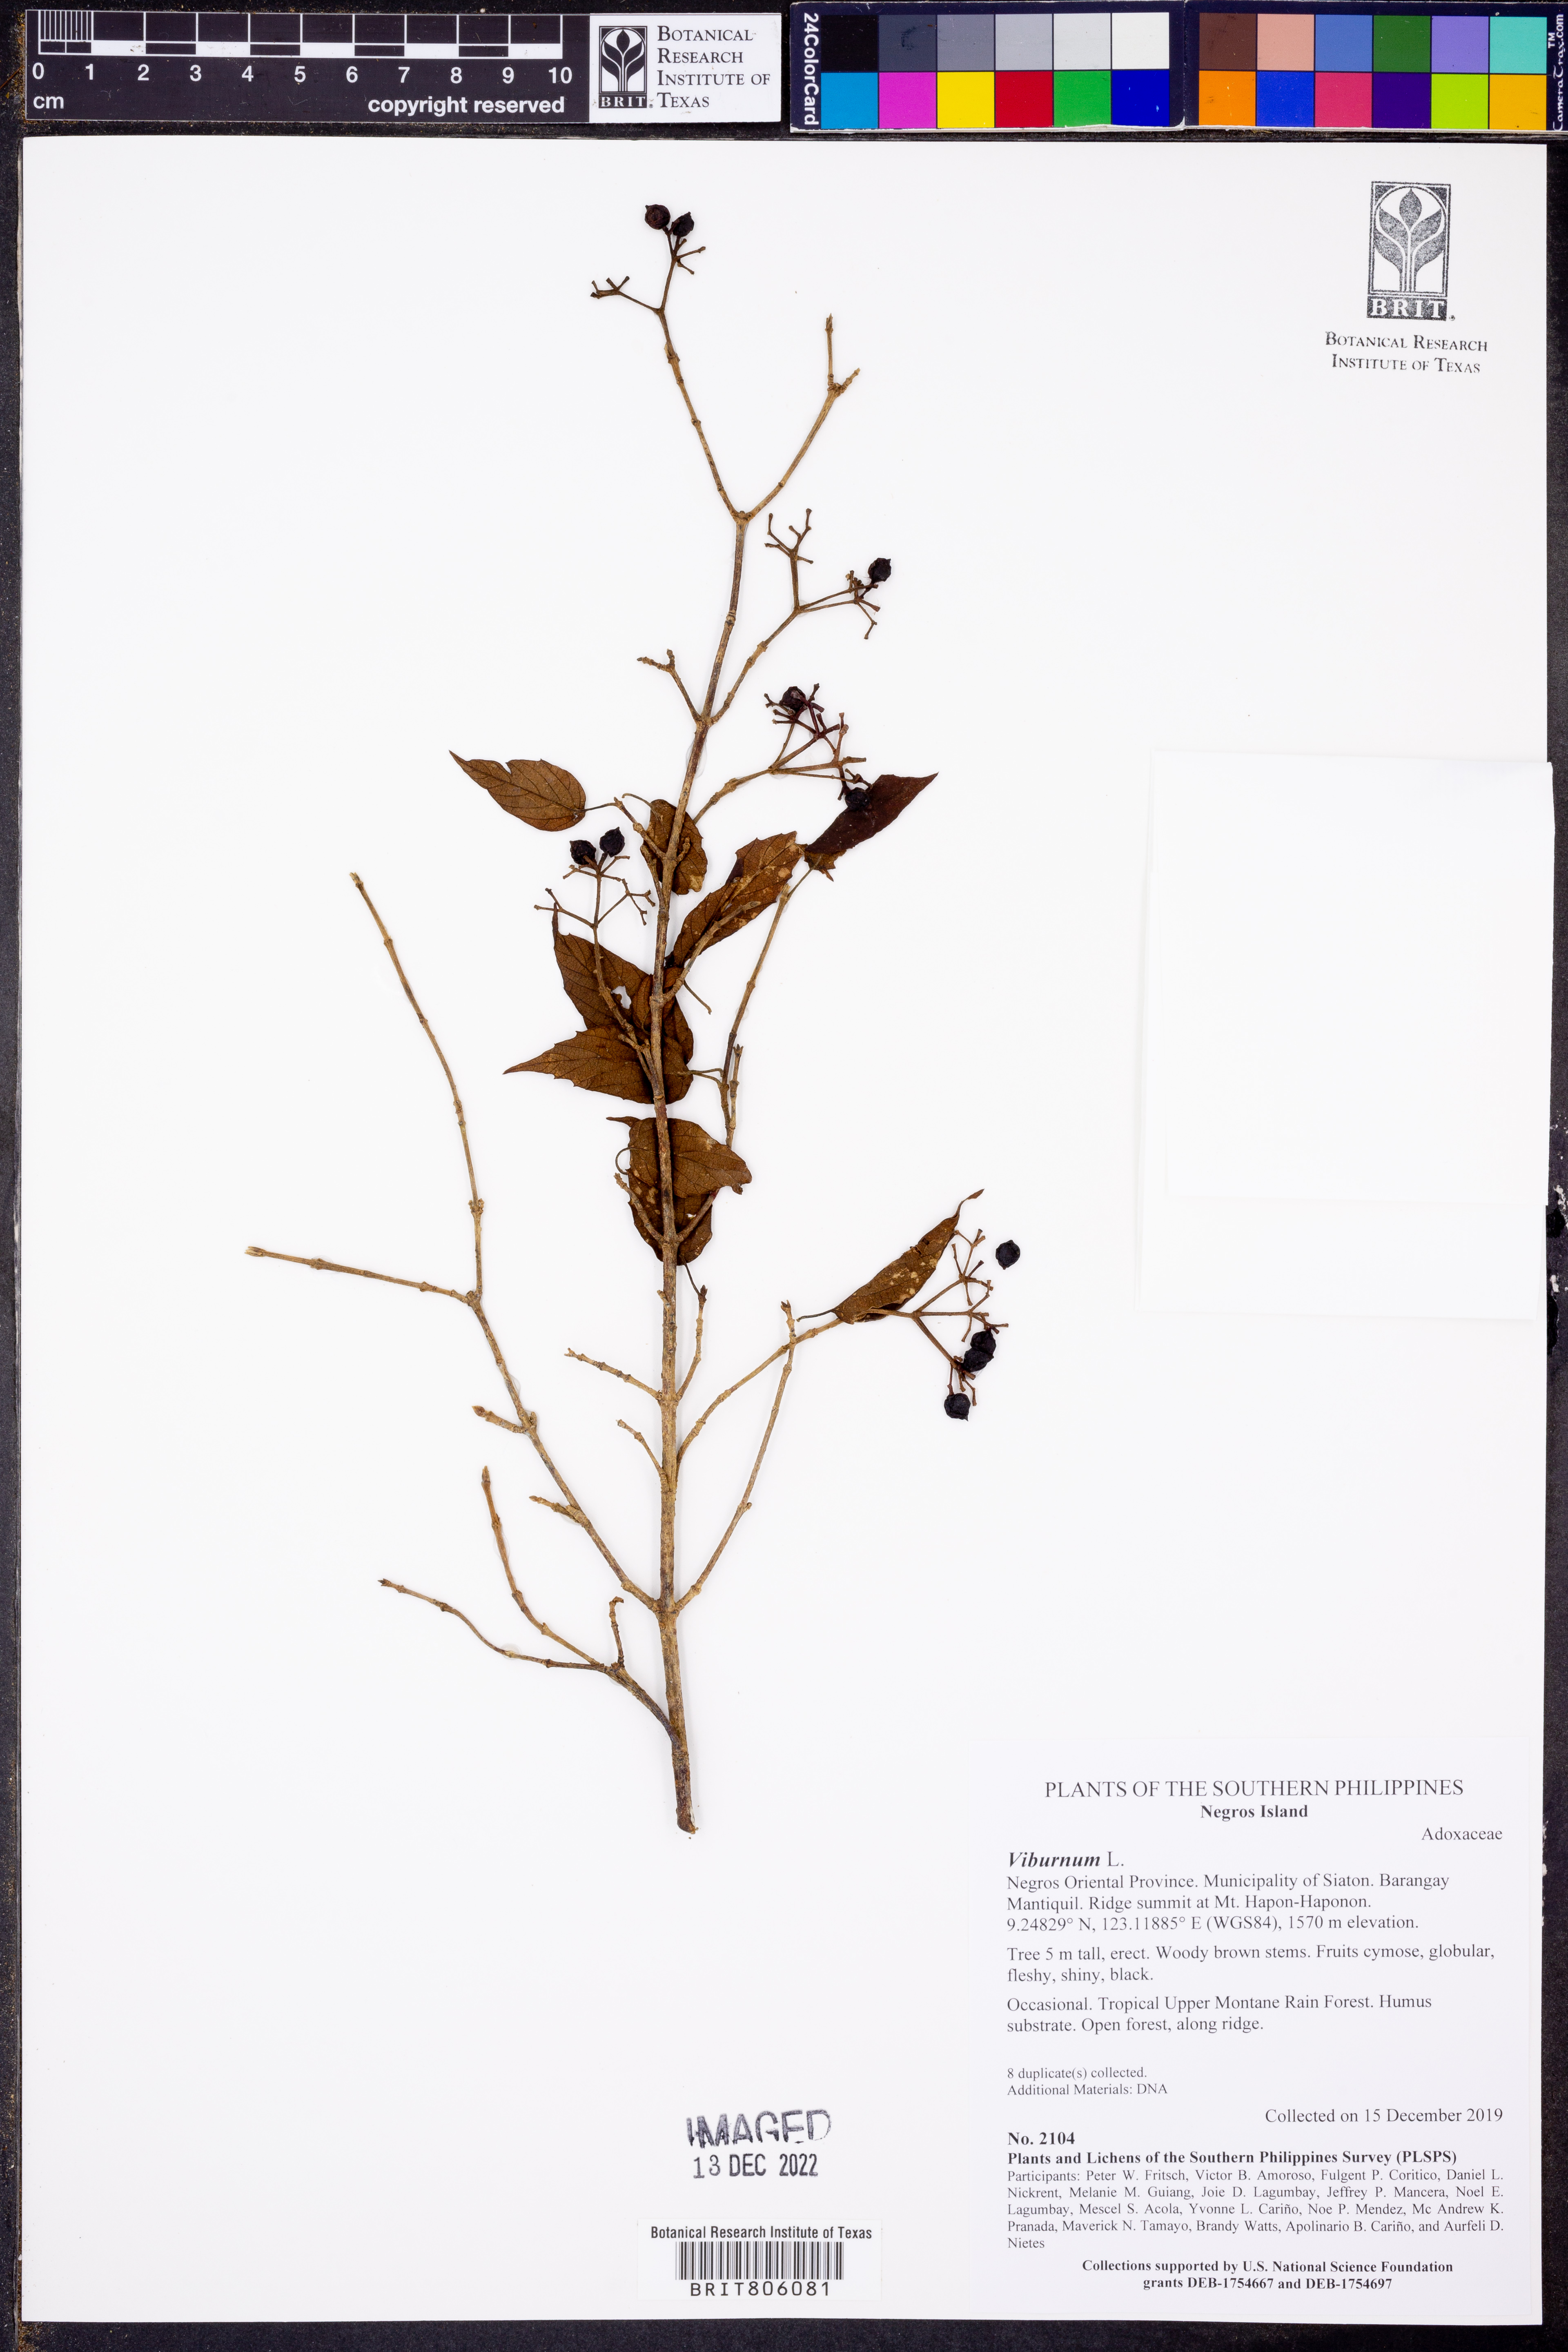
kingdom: Plantae
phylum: Tracheophyta
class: Magnoliopsida
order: Dipsacales
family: Viburnaceae
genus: Viburnum
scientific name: Viburnum
